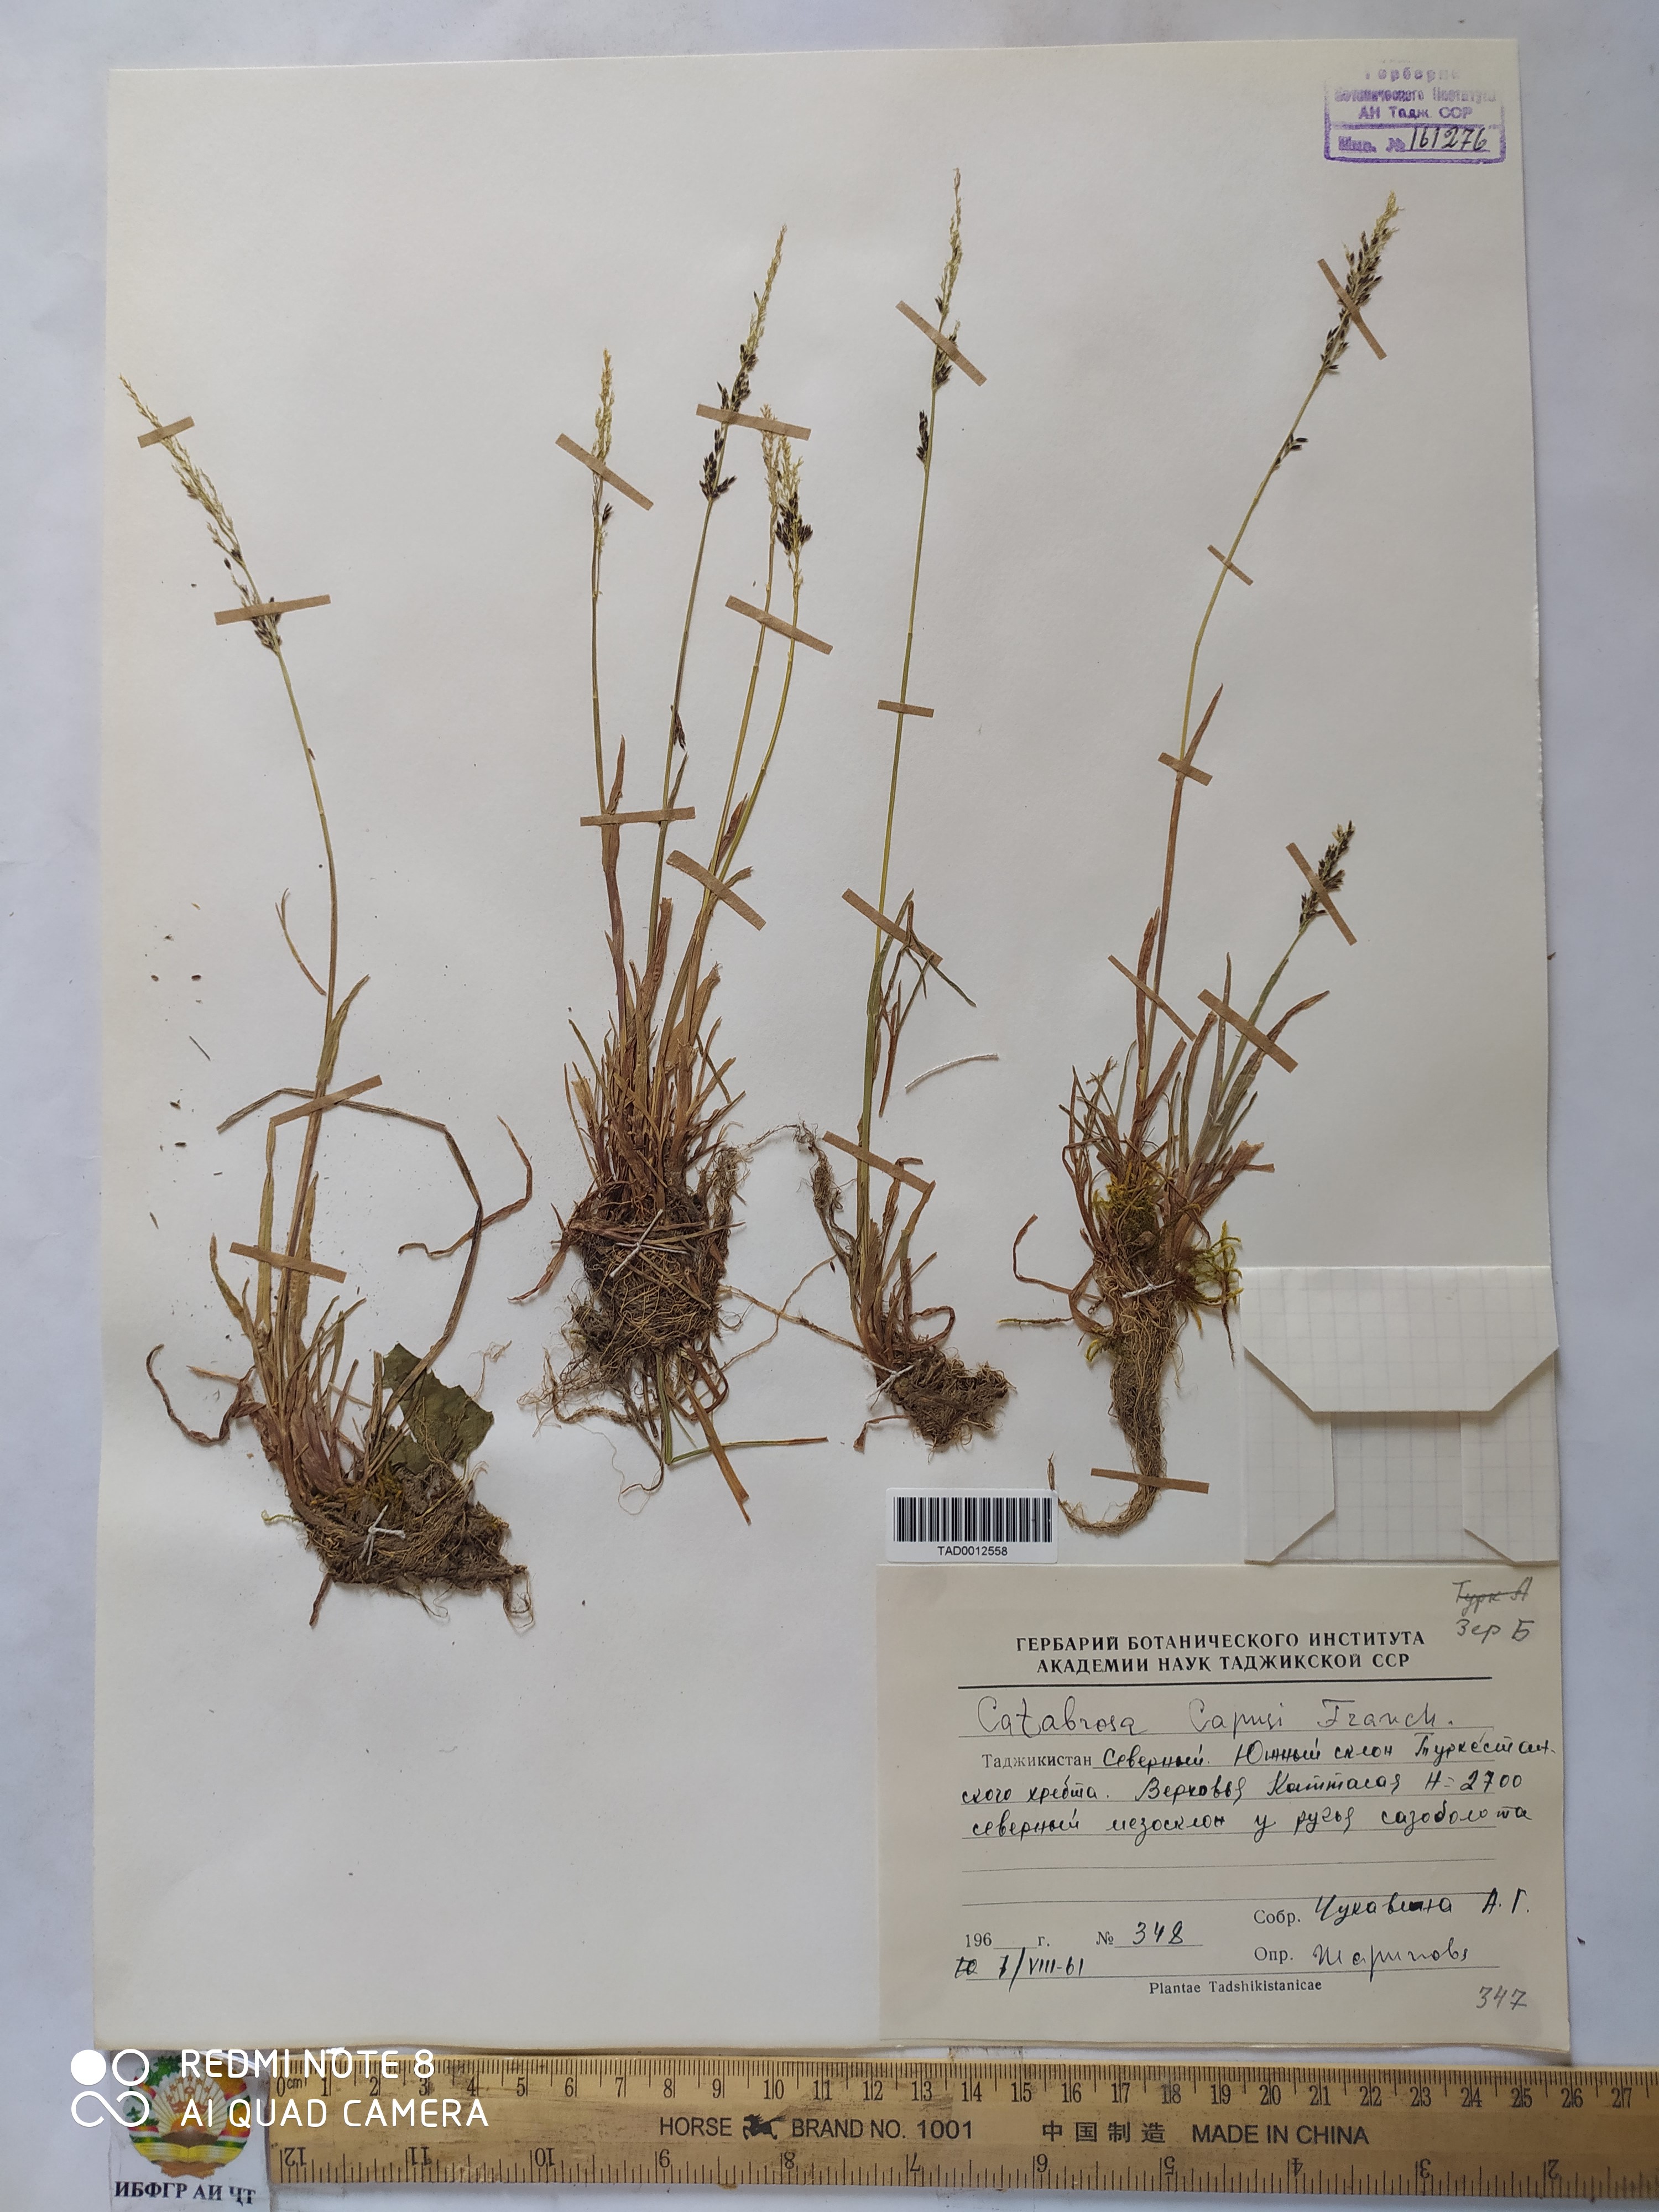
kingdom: Plantae
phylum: Tracheophyta
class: Liliopsida
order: Poales
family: Poaceae
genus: Catabrosa
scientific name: Catabrosa aquatica
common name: Whorl-grass
